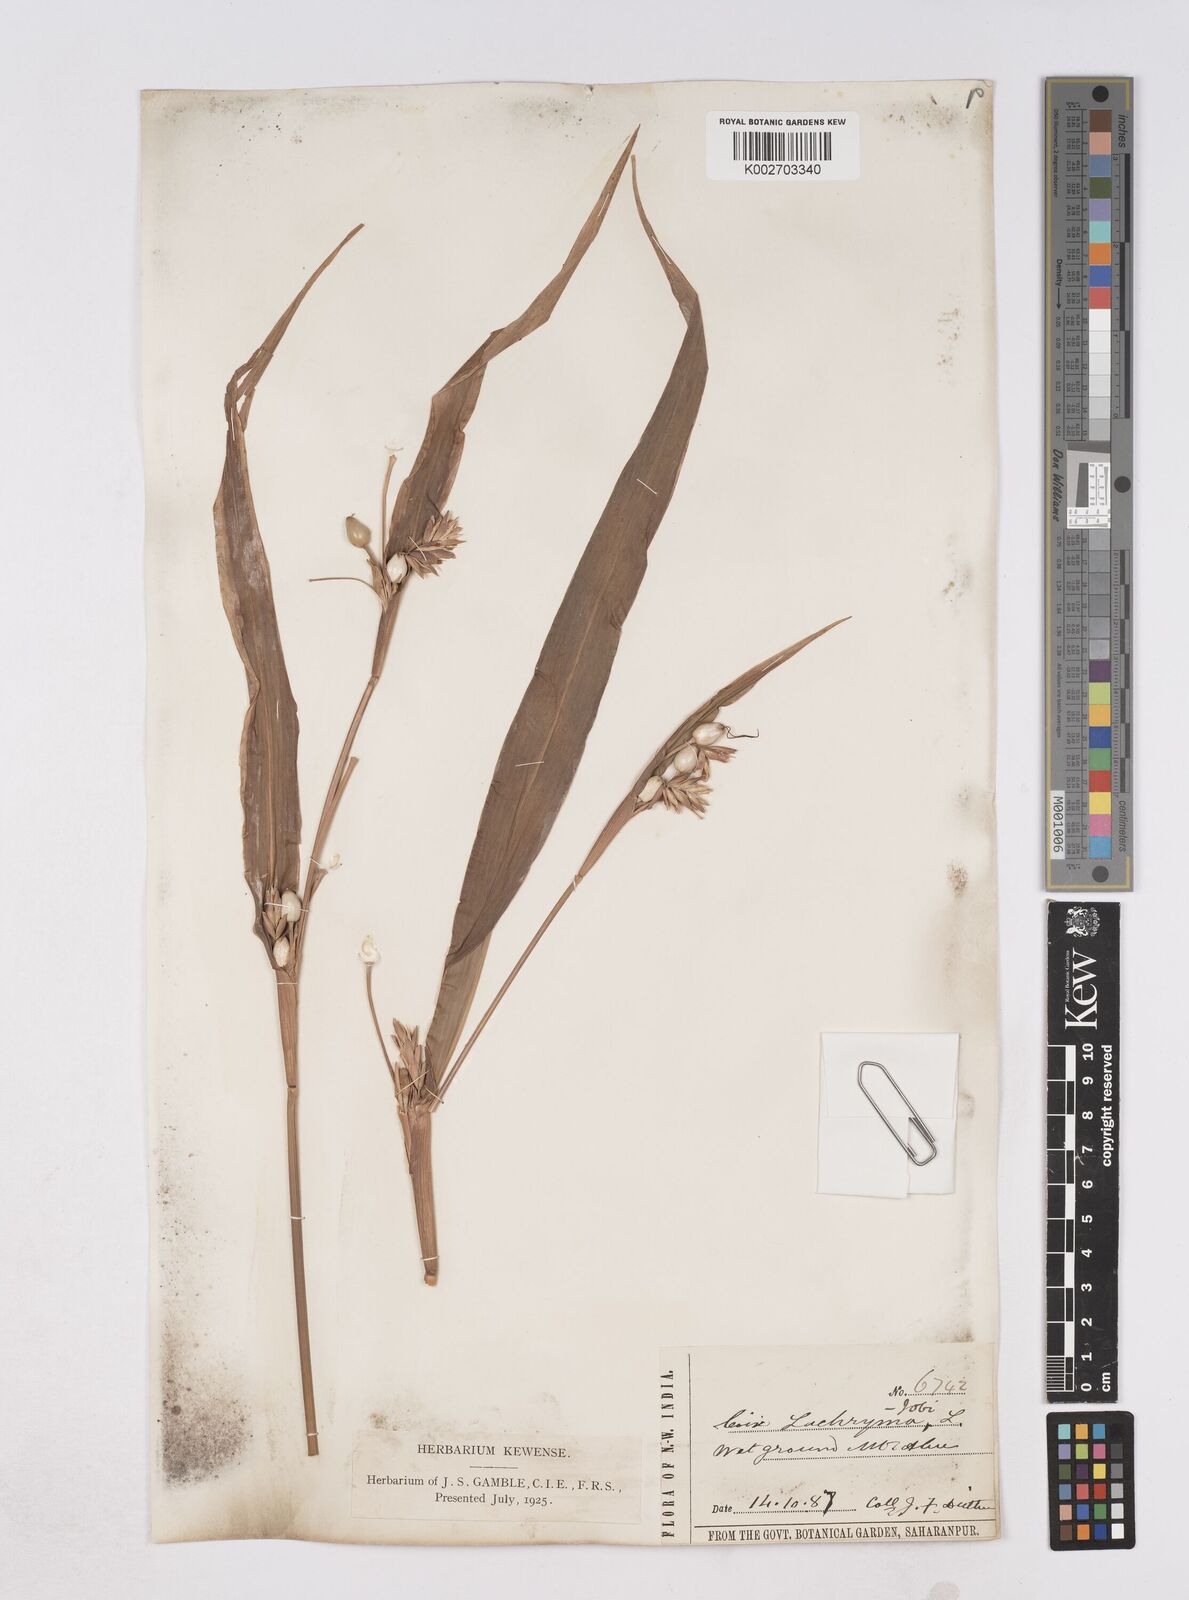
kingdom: Plantae
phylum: Tracheophyta
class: Liliopsida
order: Poales
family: Poaceae
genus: Coix
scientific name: Coix lacryma-jobi
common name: Job's tears
